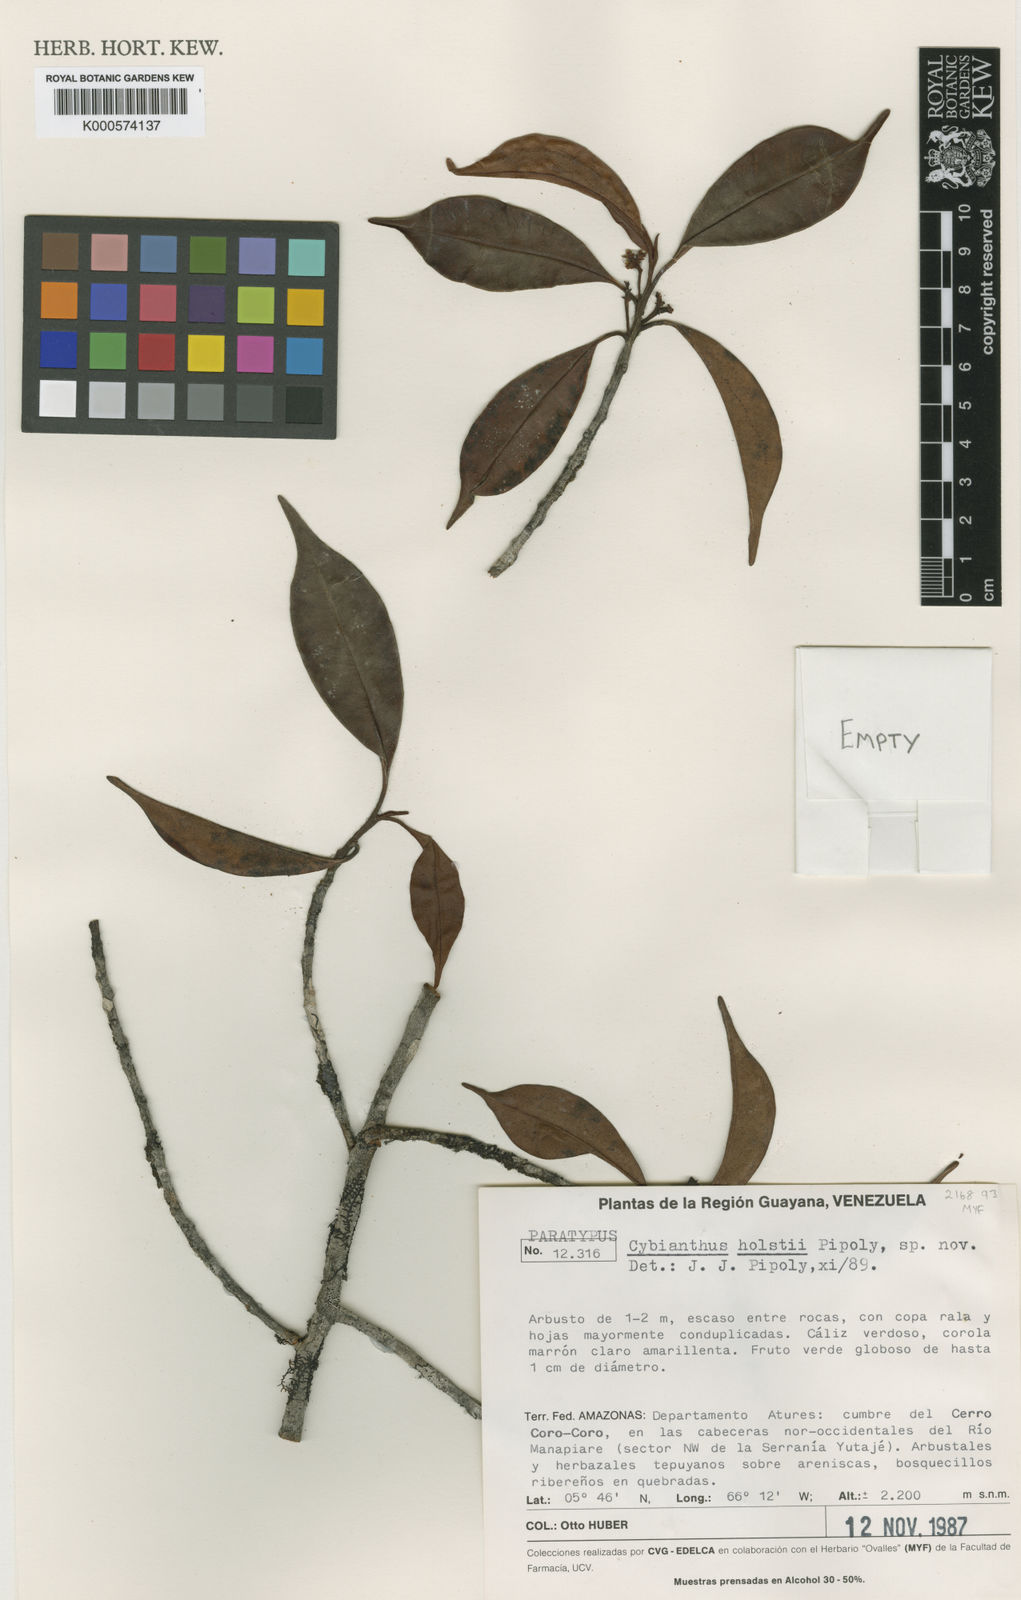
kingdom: Plantae
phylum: Tracheophyta
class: Magnoliopsida
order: Ericales
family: Primulaceae
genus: Cybianthus
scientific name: Cybianthus holstii
